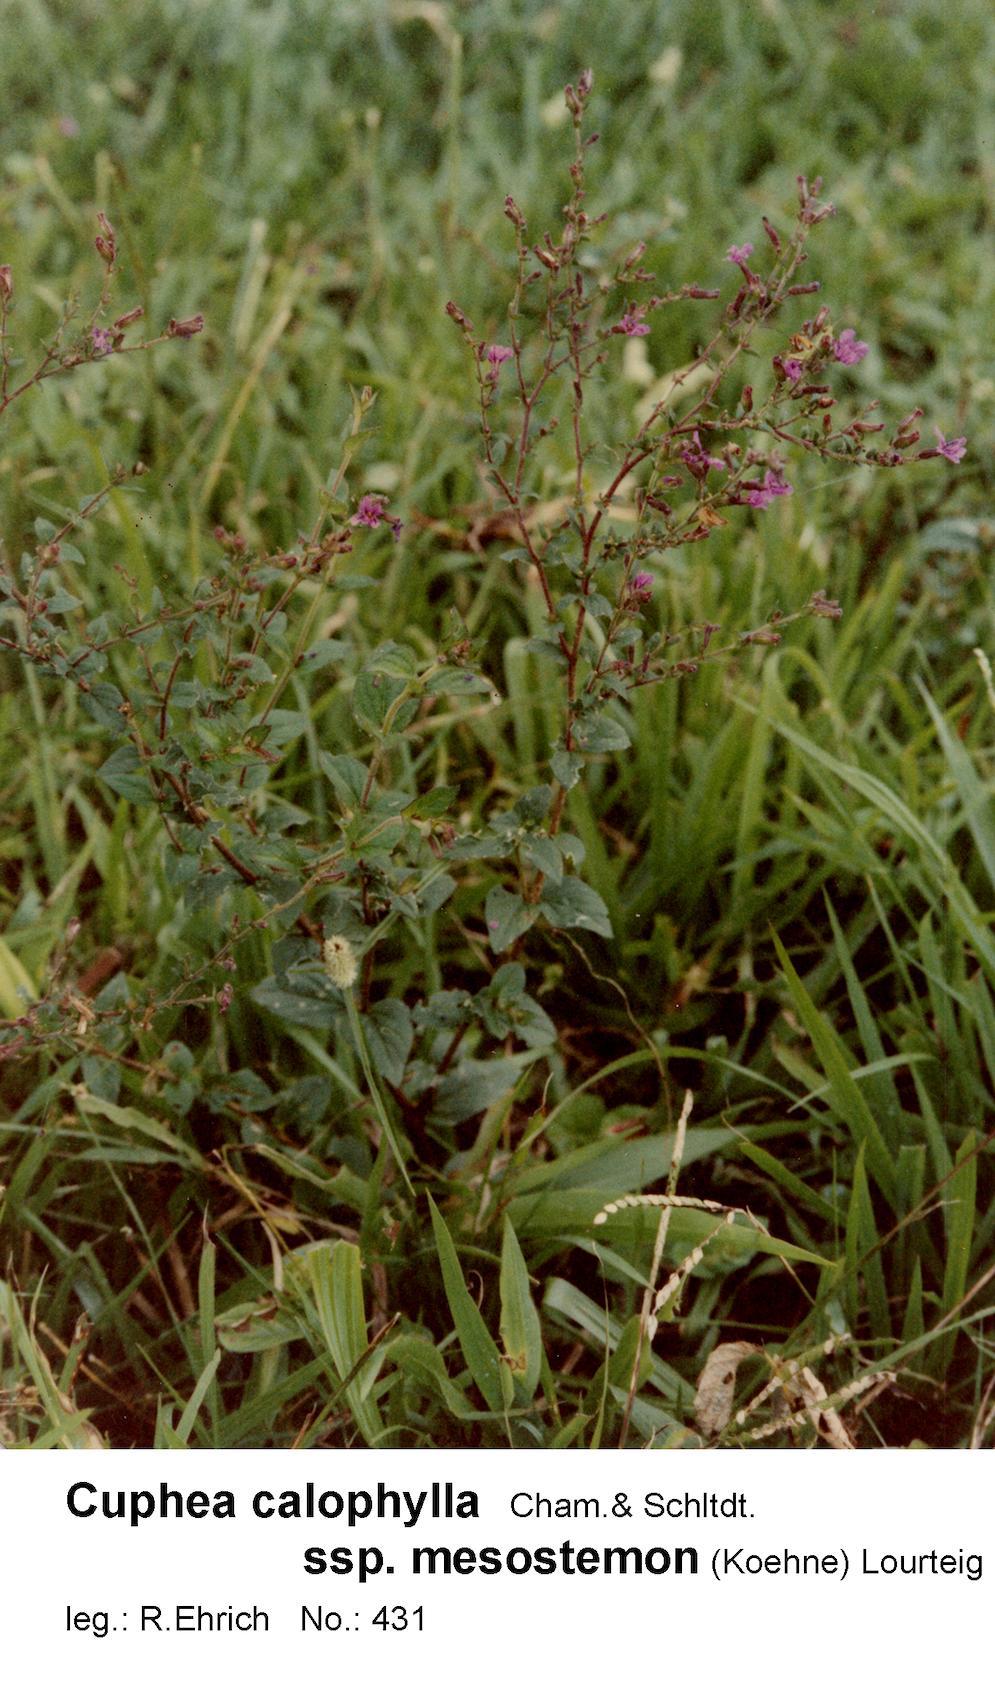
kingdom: Plantae
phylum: Tracheophyta
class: Magnoliopsida
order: Myrtales
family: Lythraceae
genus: Cuphea
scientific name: Cuphea calophylla
